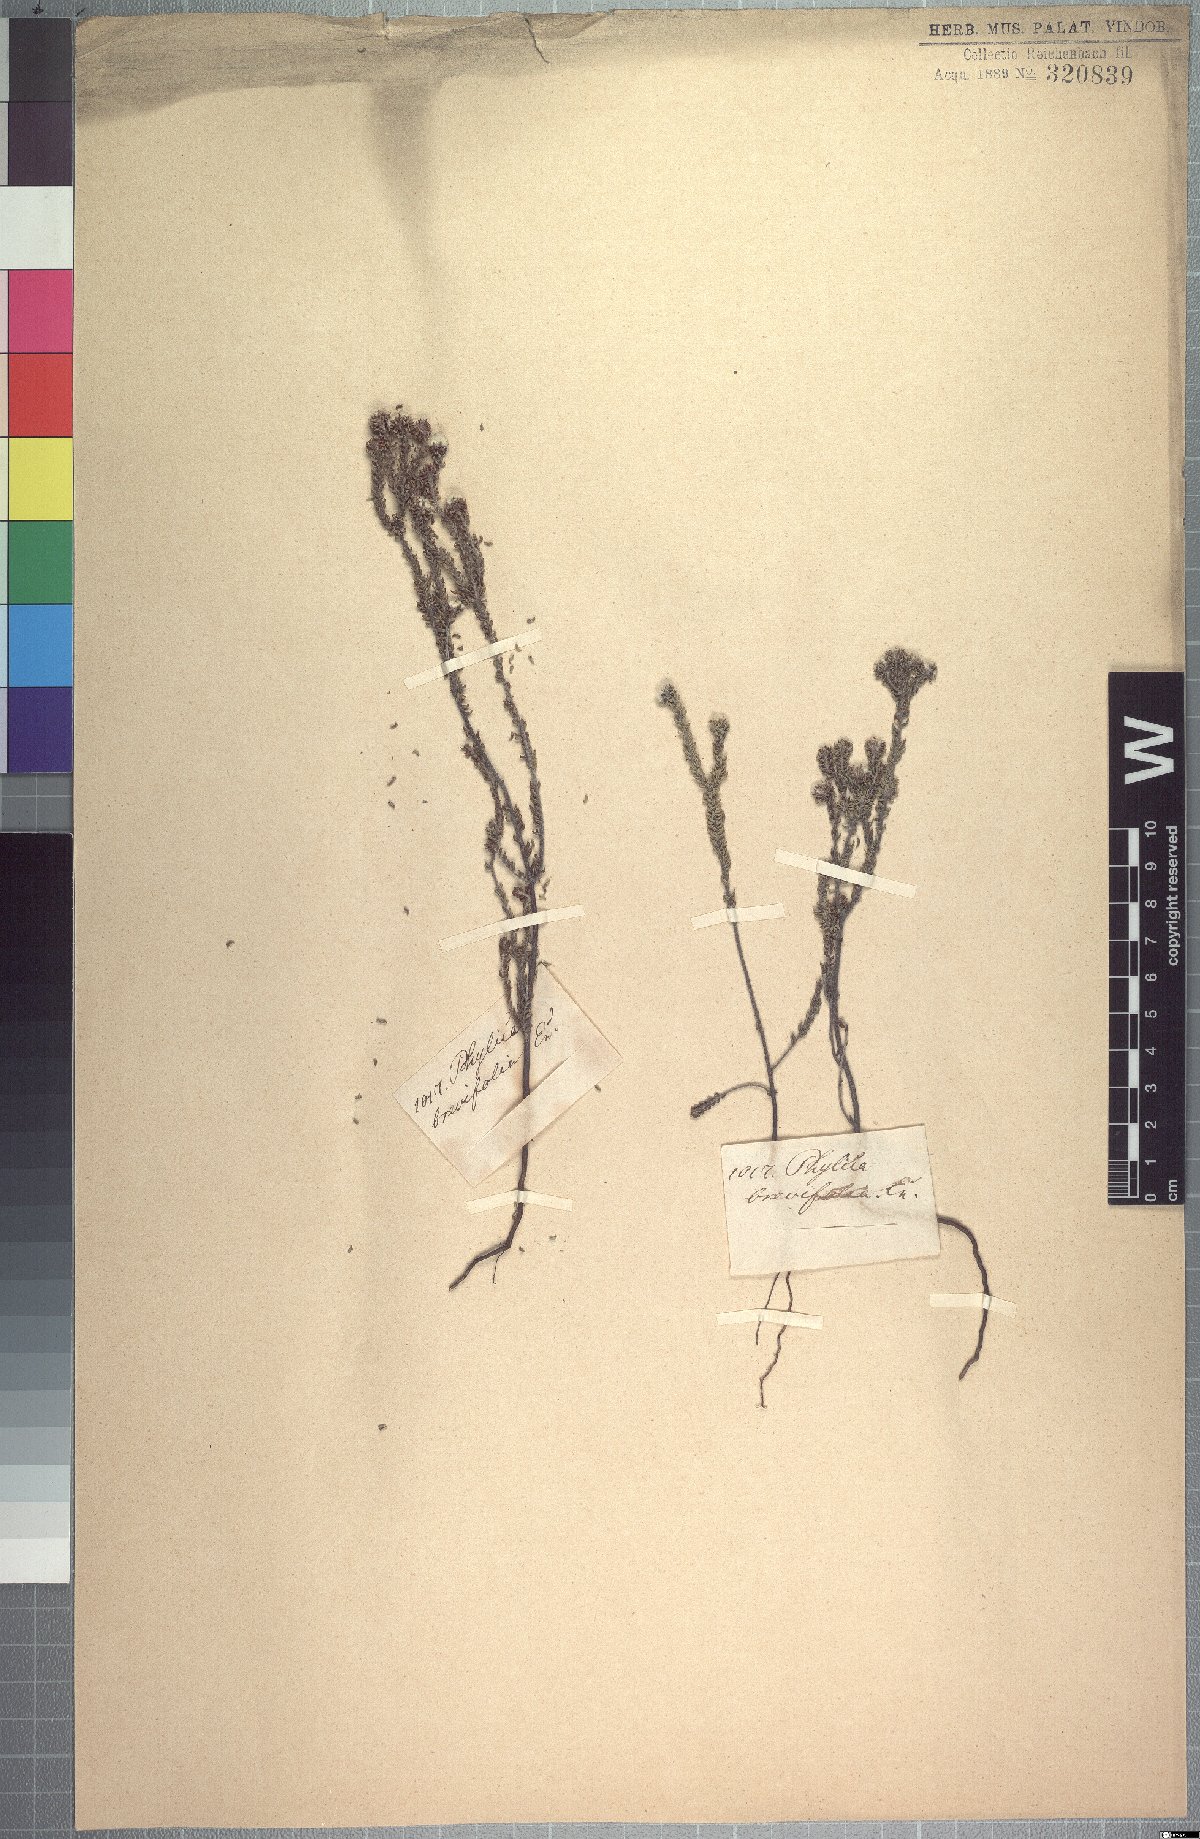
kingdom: Plantae
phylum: Tracheophyta
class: Magnoliopsida
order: Rosales
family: Rhamnaceae
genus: Phylica
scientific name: Phylica brevifolia
